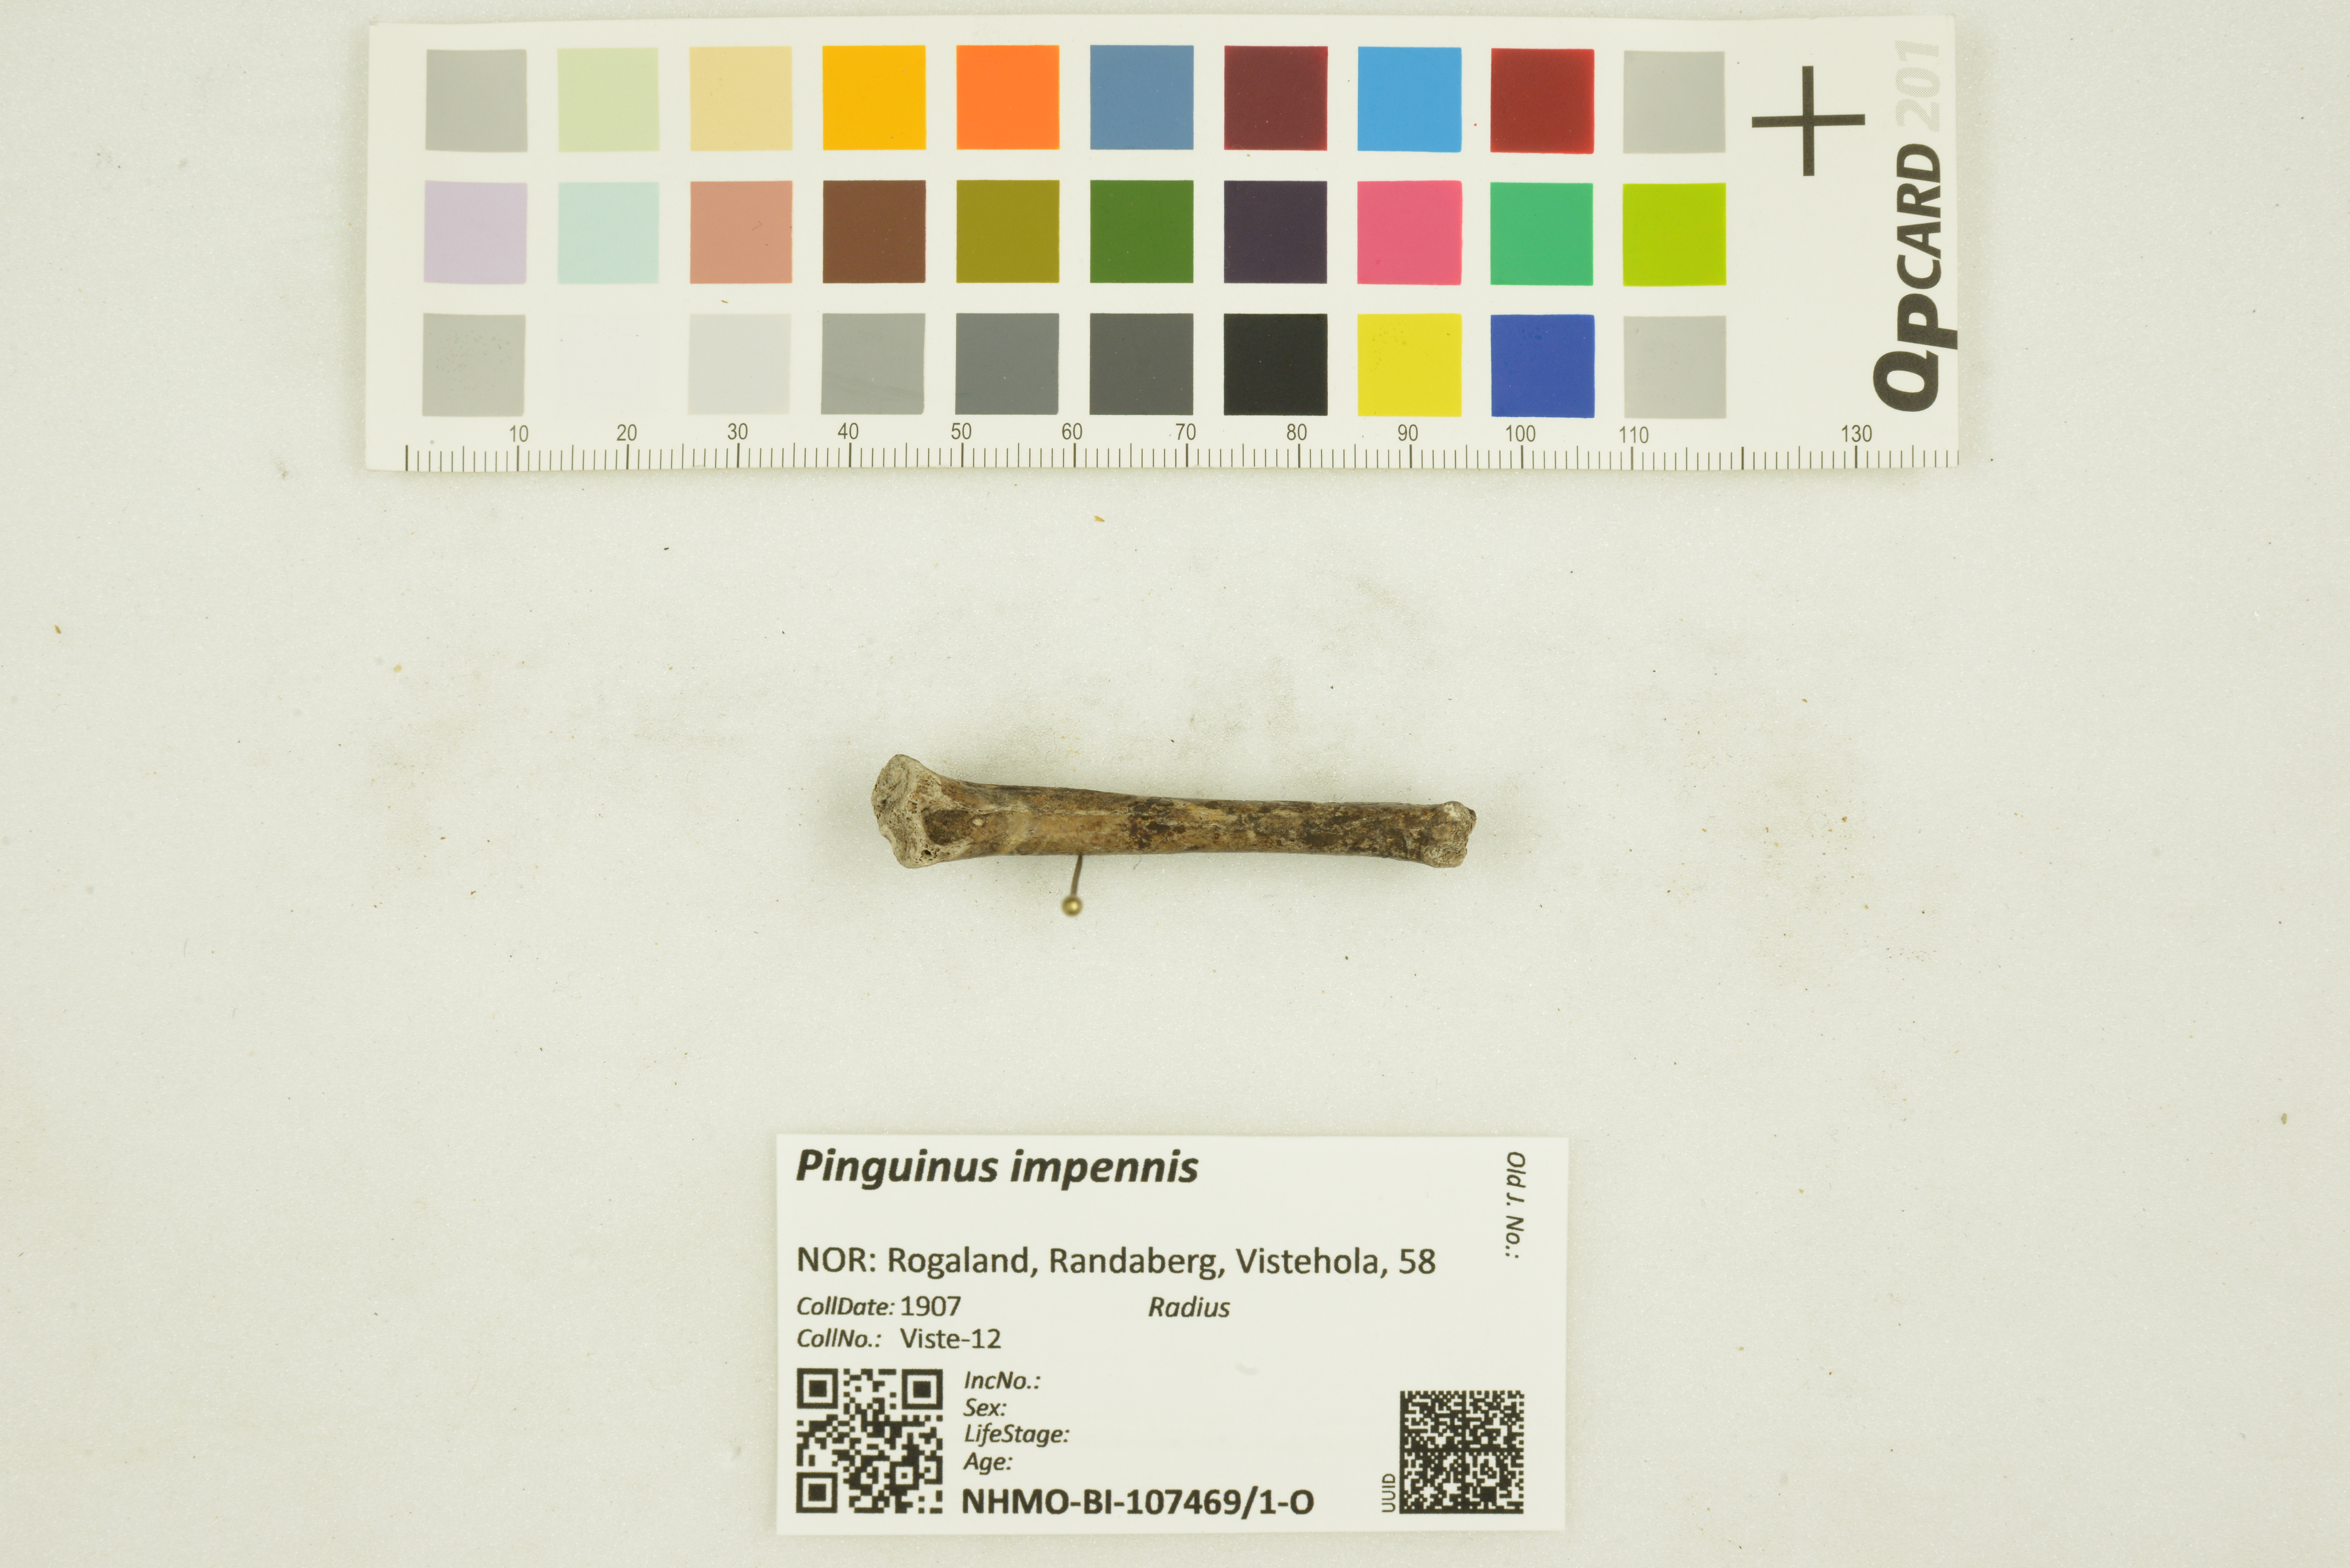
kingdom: Animalia
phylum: Chordata
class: Aves
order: Charadriiformes
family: Alcidae
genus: Pinguinus
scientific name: Pinguinus impennis
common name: Great auk
